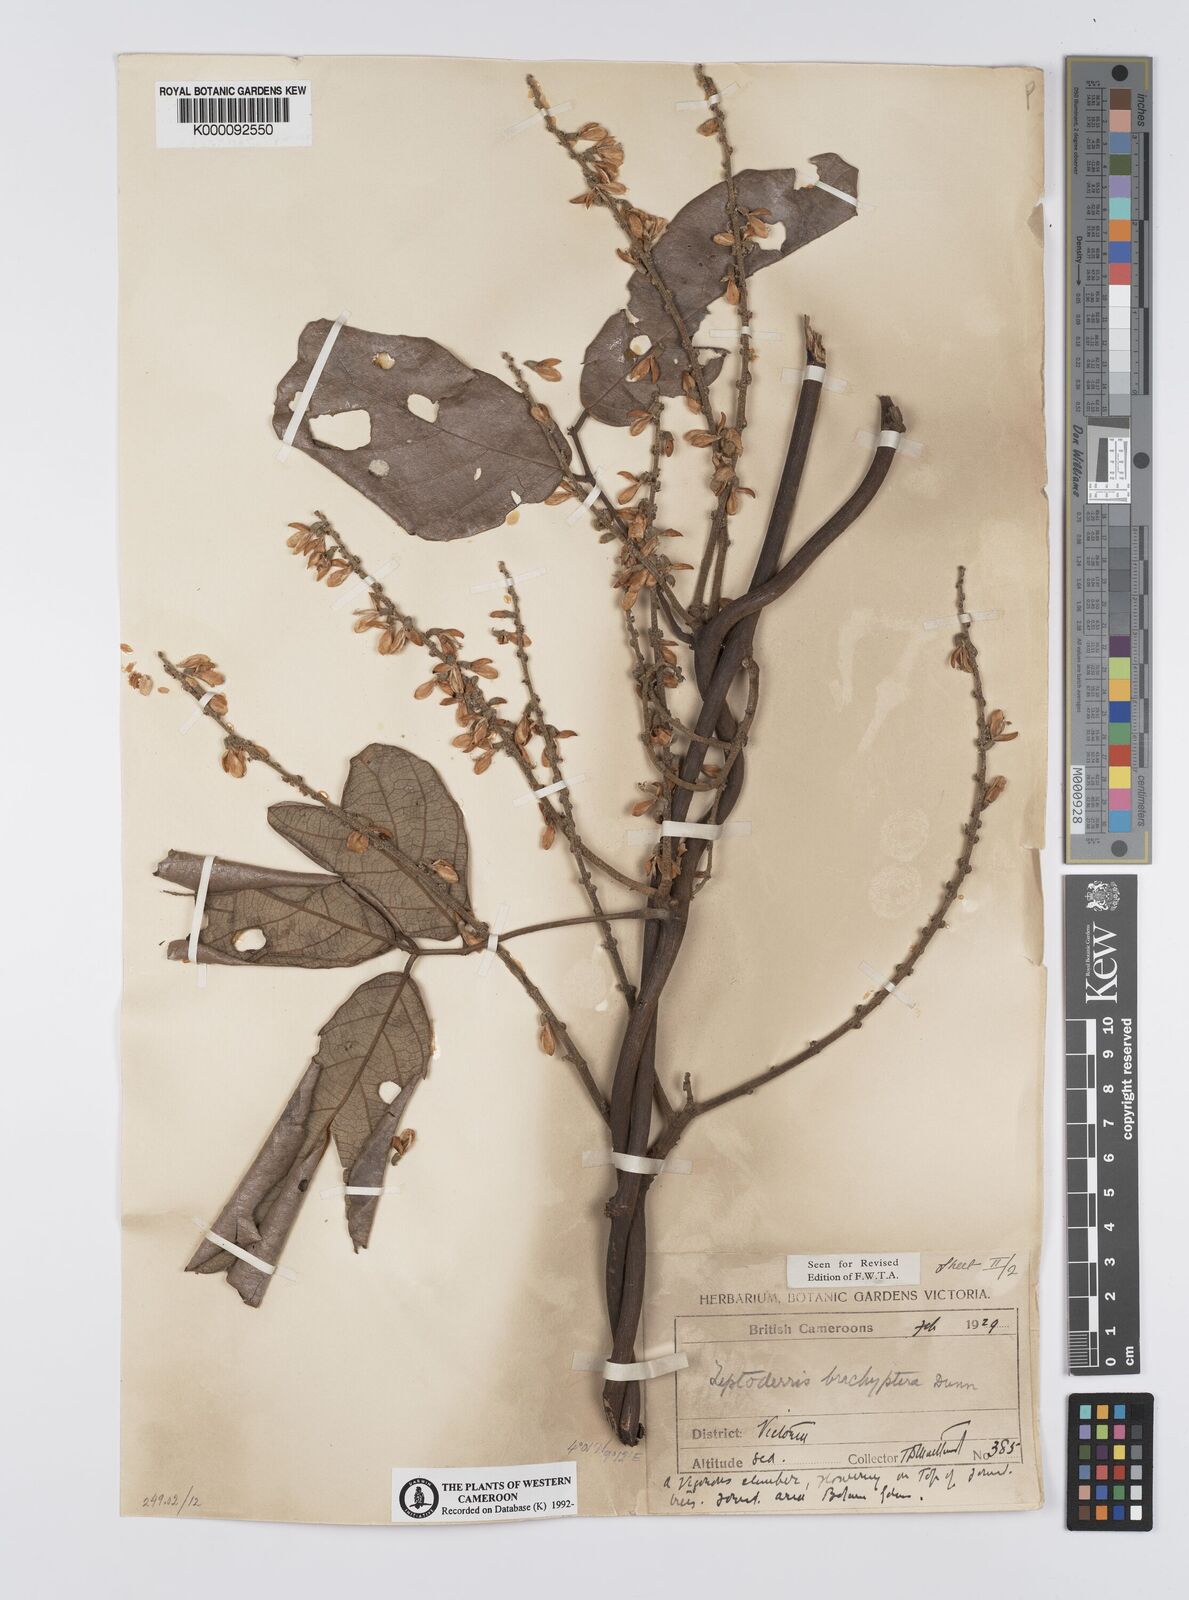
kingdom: Plantae
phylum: Tracheophyta
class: Magnoliopsida
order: Fabales
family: Fabaceae
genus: Leptoderris
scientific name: Leptoderris brachyptera
